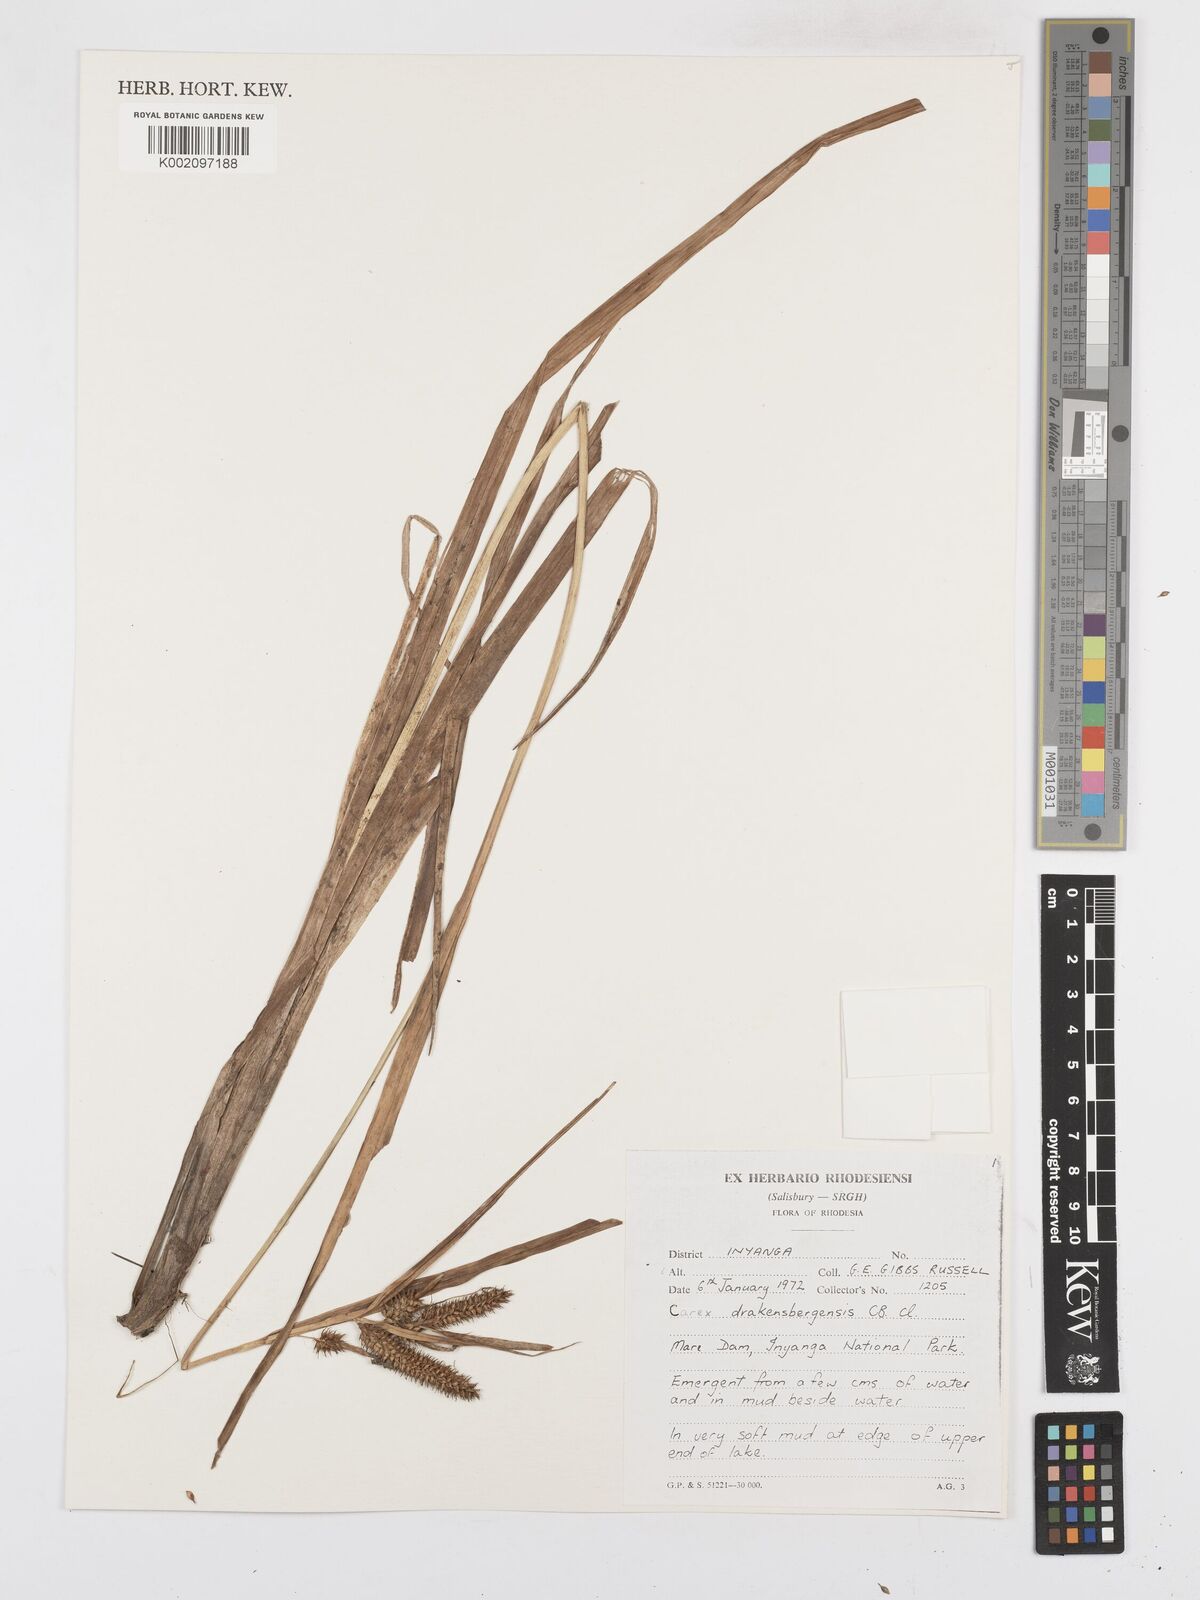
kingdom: Plantae
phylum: Tracheophyta
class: Liliopsida
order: Poales
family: Cyperaceae
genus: Carex
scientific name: Carex cognata
